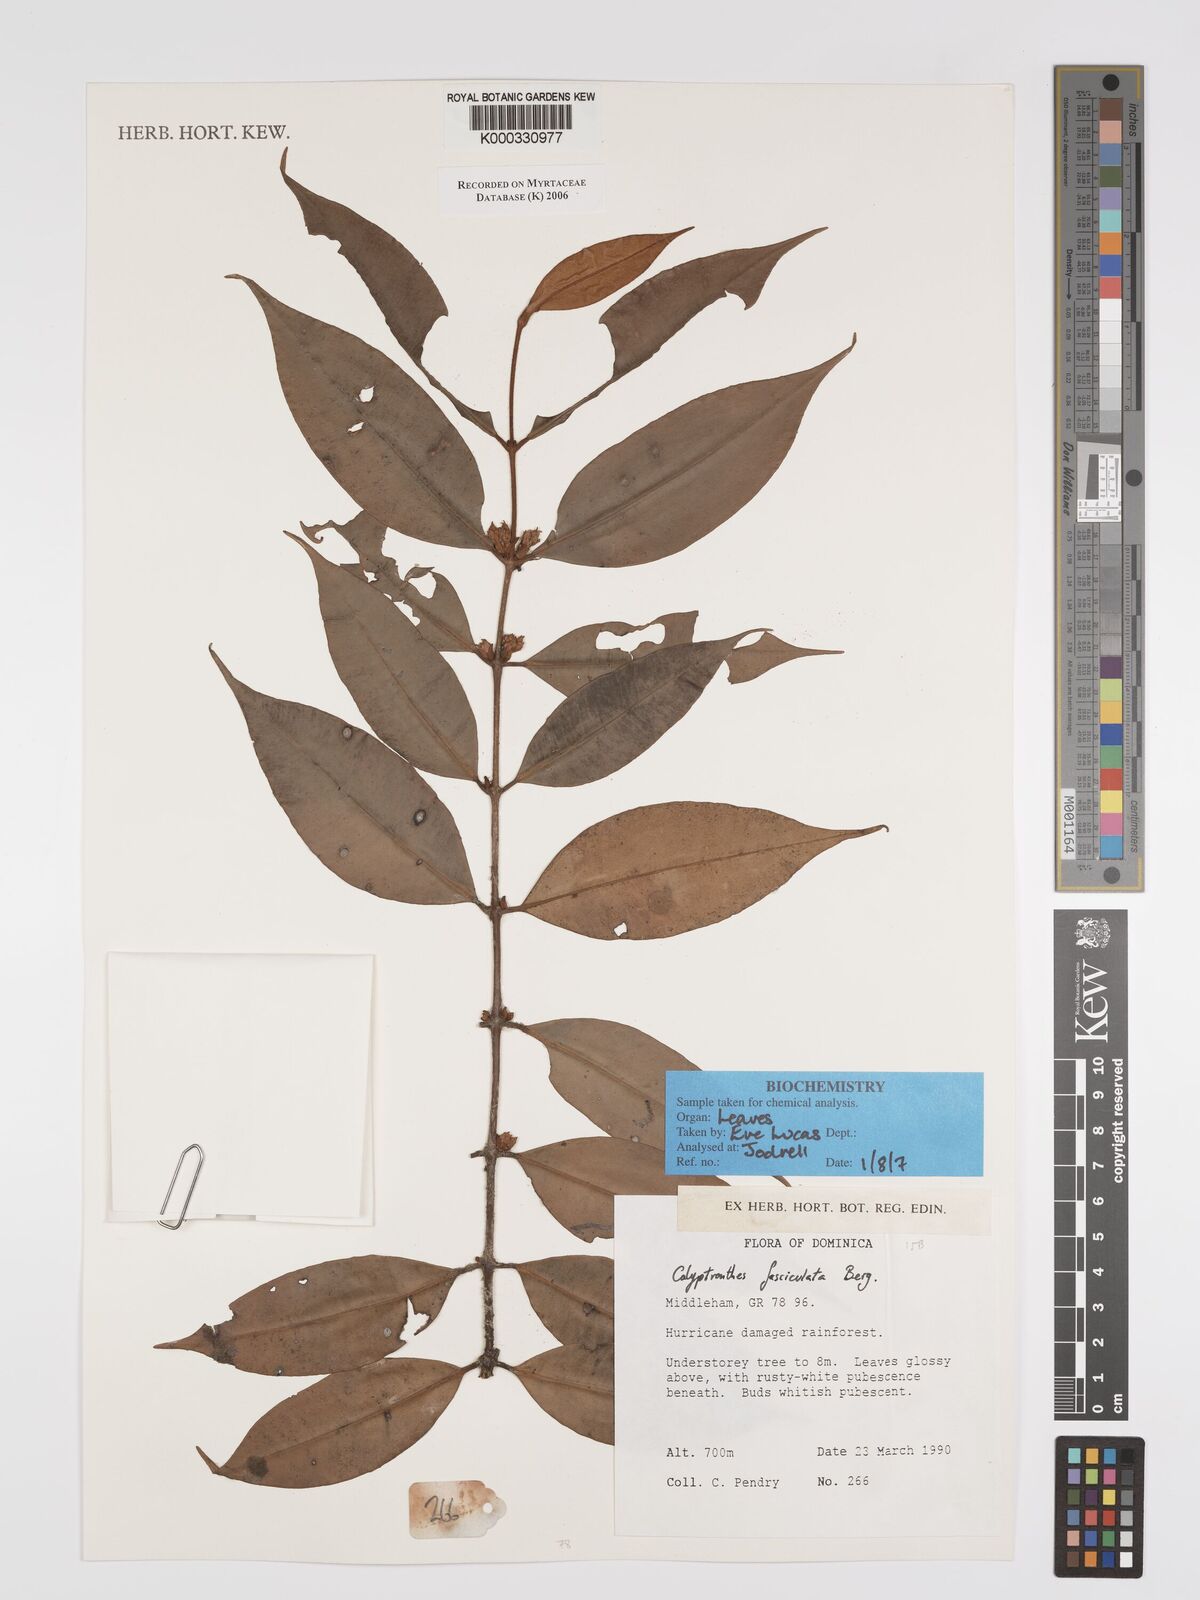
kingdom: Plantae
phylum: Tracheophyta
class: Magnoliopsida
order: Myrtales
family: Myrtaceae
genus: Myrcia
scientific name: Myrcia fasciculata
